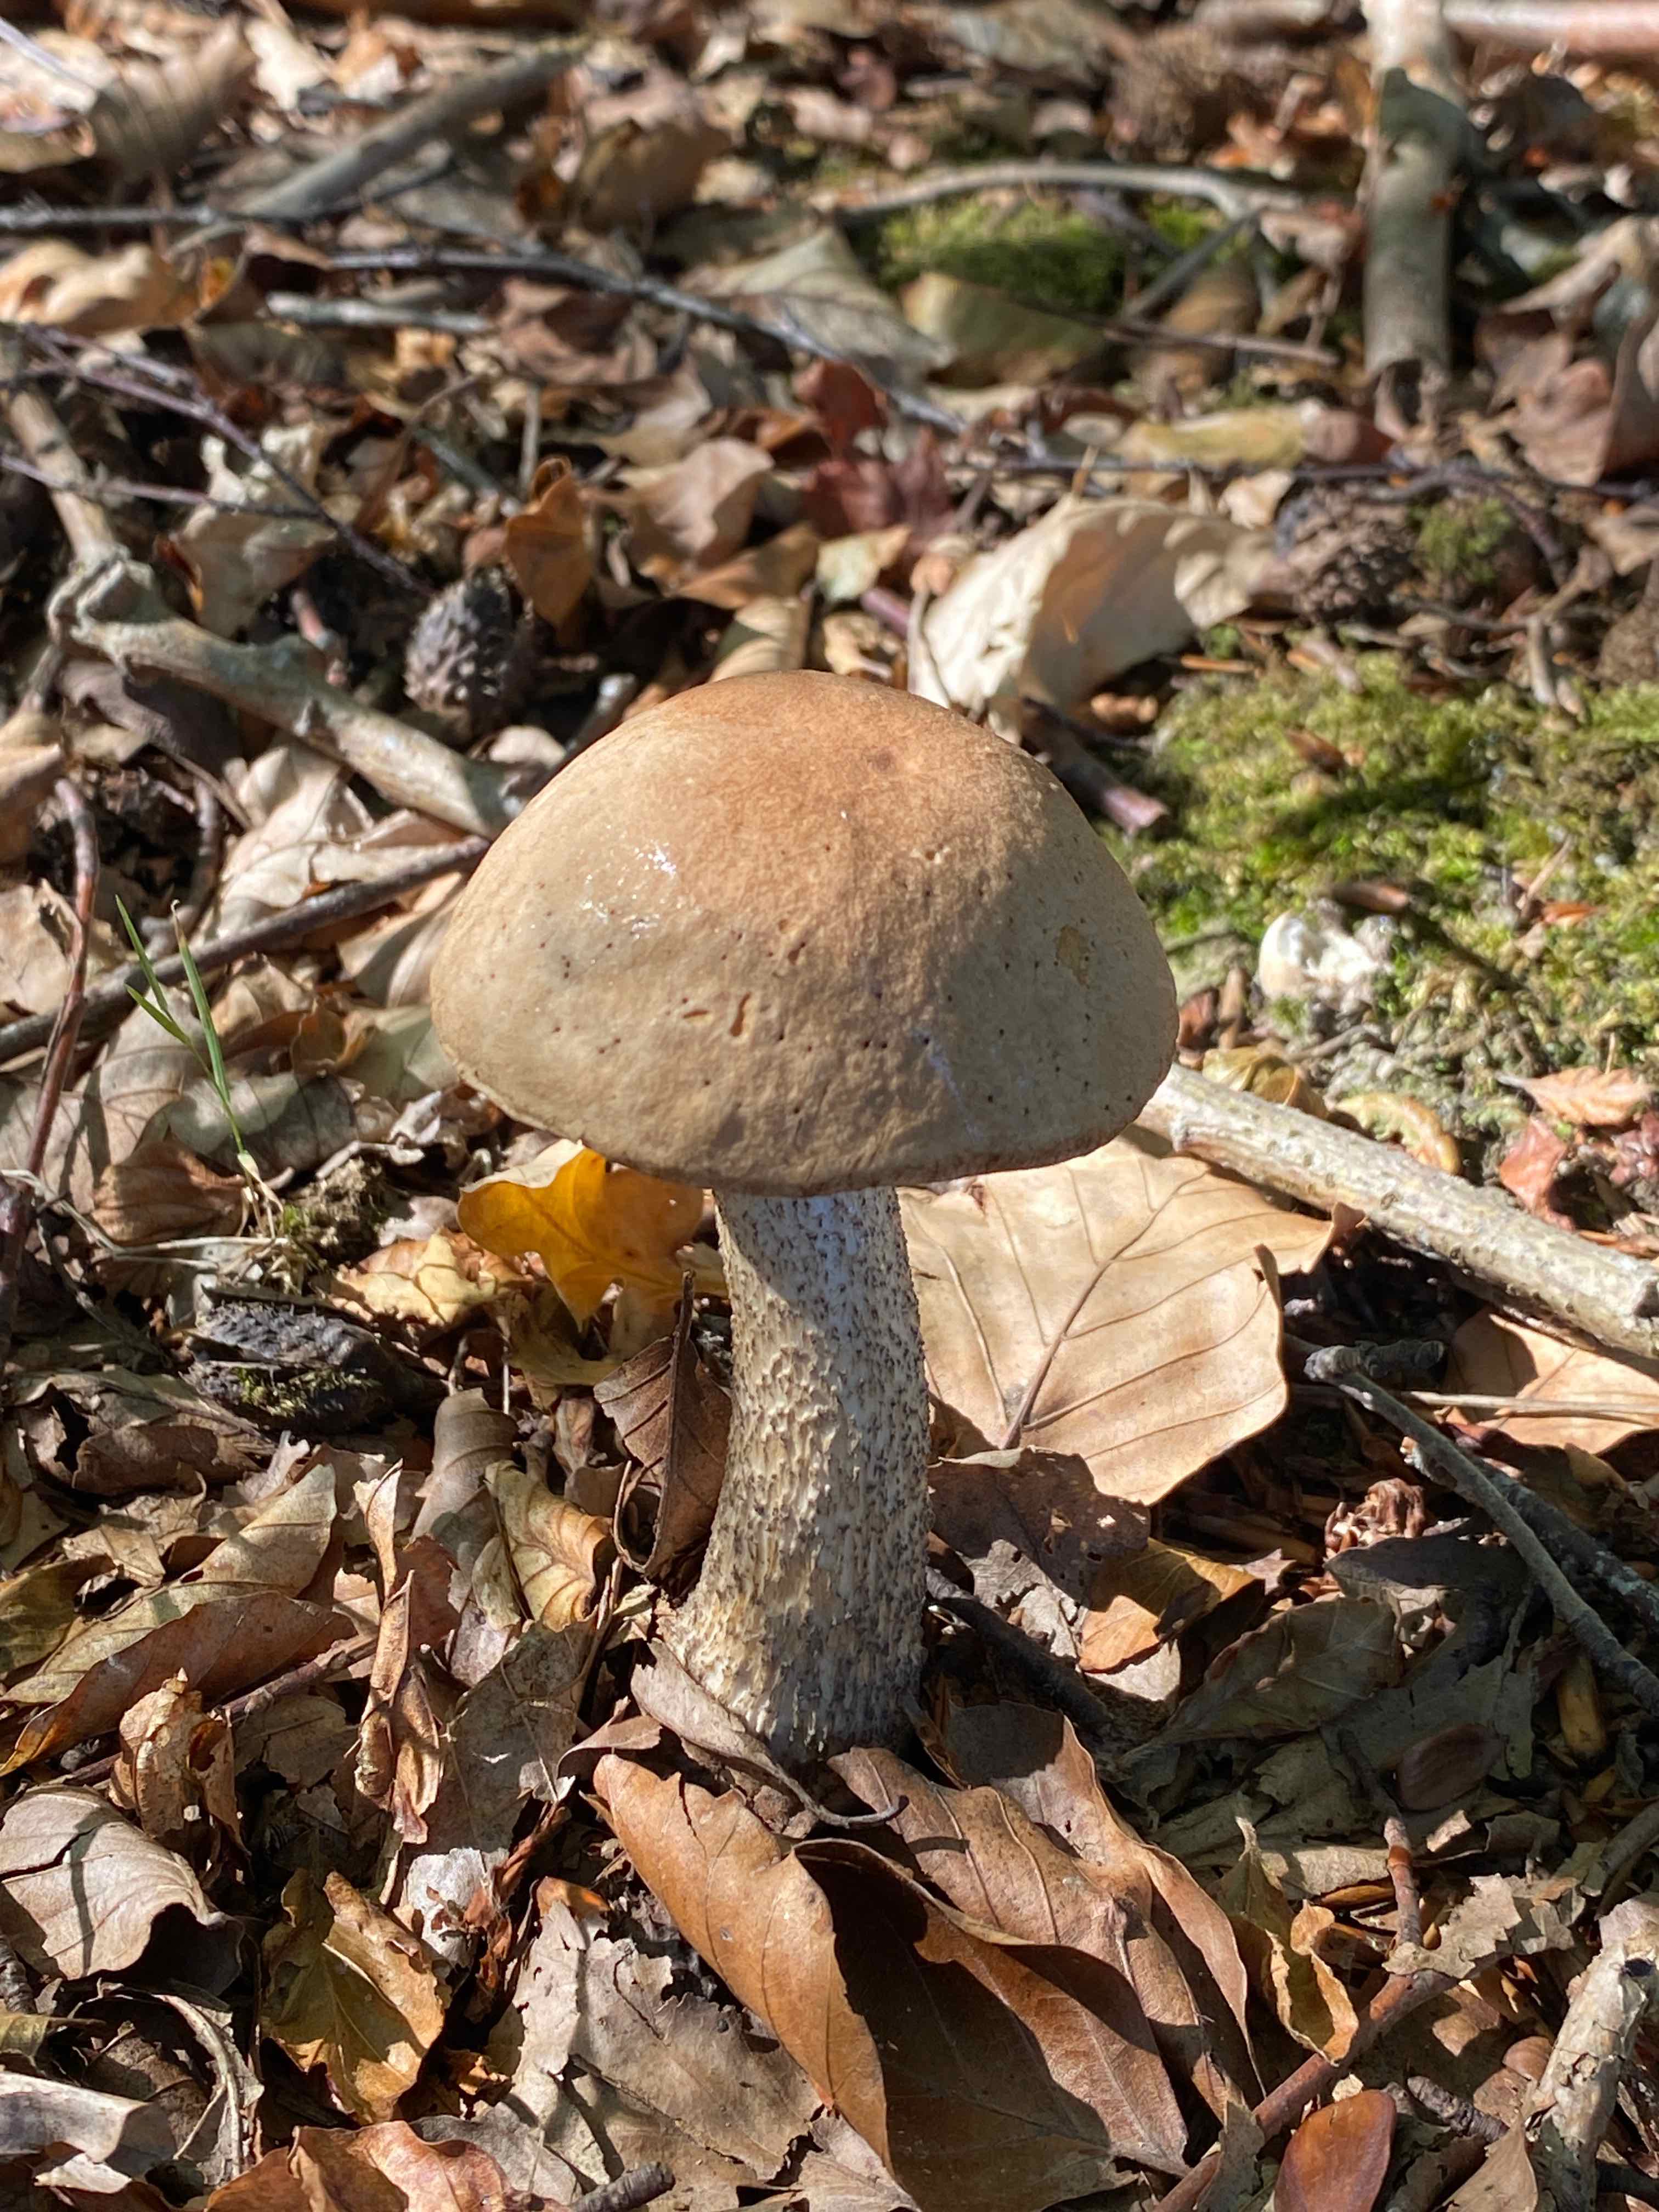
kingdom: Fungi
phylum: Basidiomycota
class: Agaricomycetes
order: Boletales
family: Boletaceae
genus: Leccinum
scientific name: Leccinum scabrum
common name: brun skælrørhat
